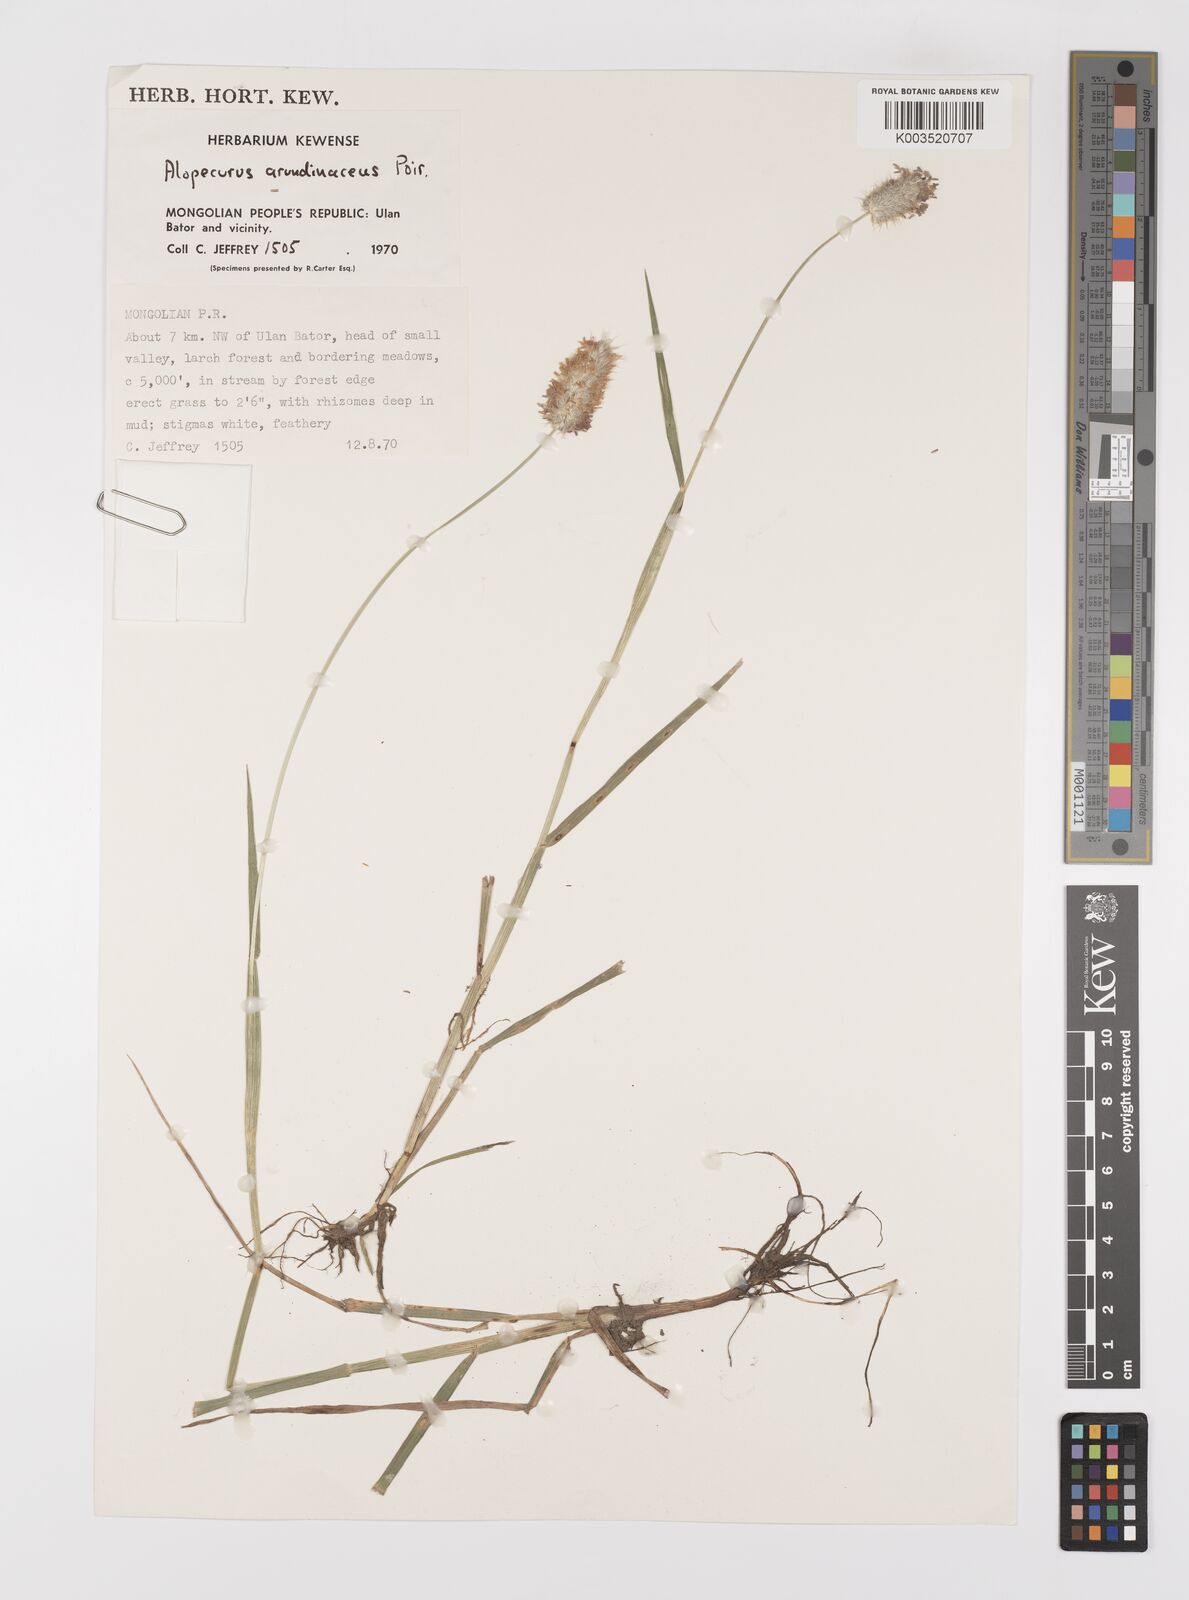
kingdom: Plantae
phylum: Tracheophyta
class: Liliopsida
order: Poales
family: Poaceae
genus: Alopecurus
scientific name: Alopecurus brachystachyus
